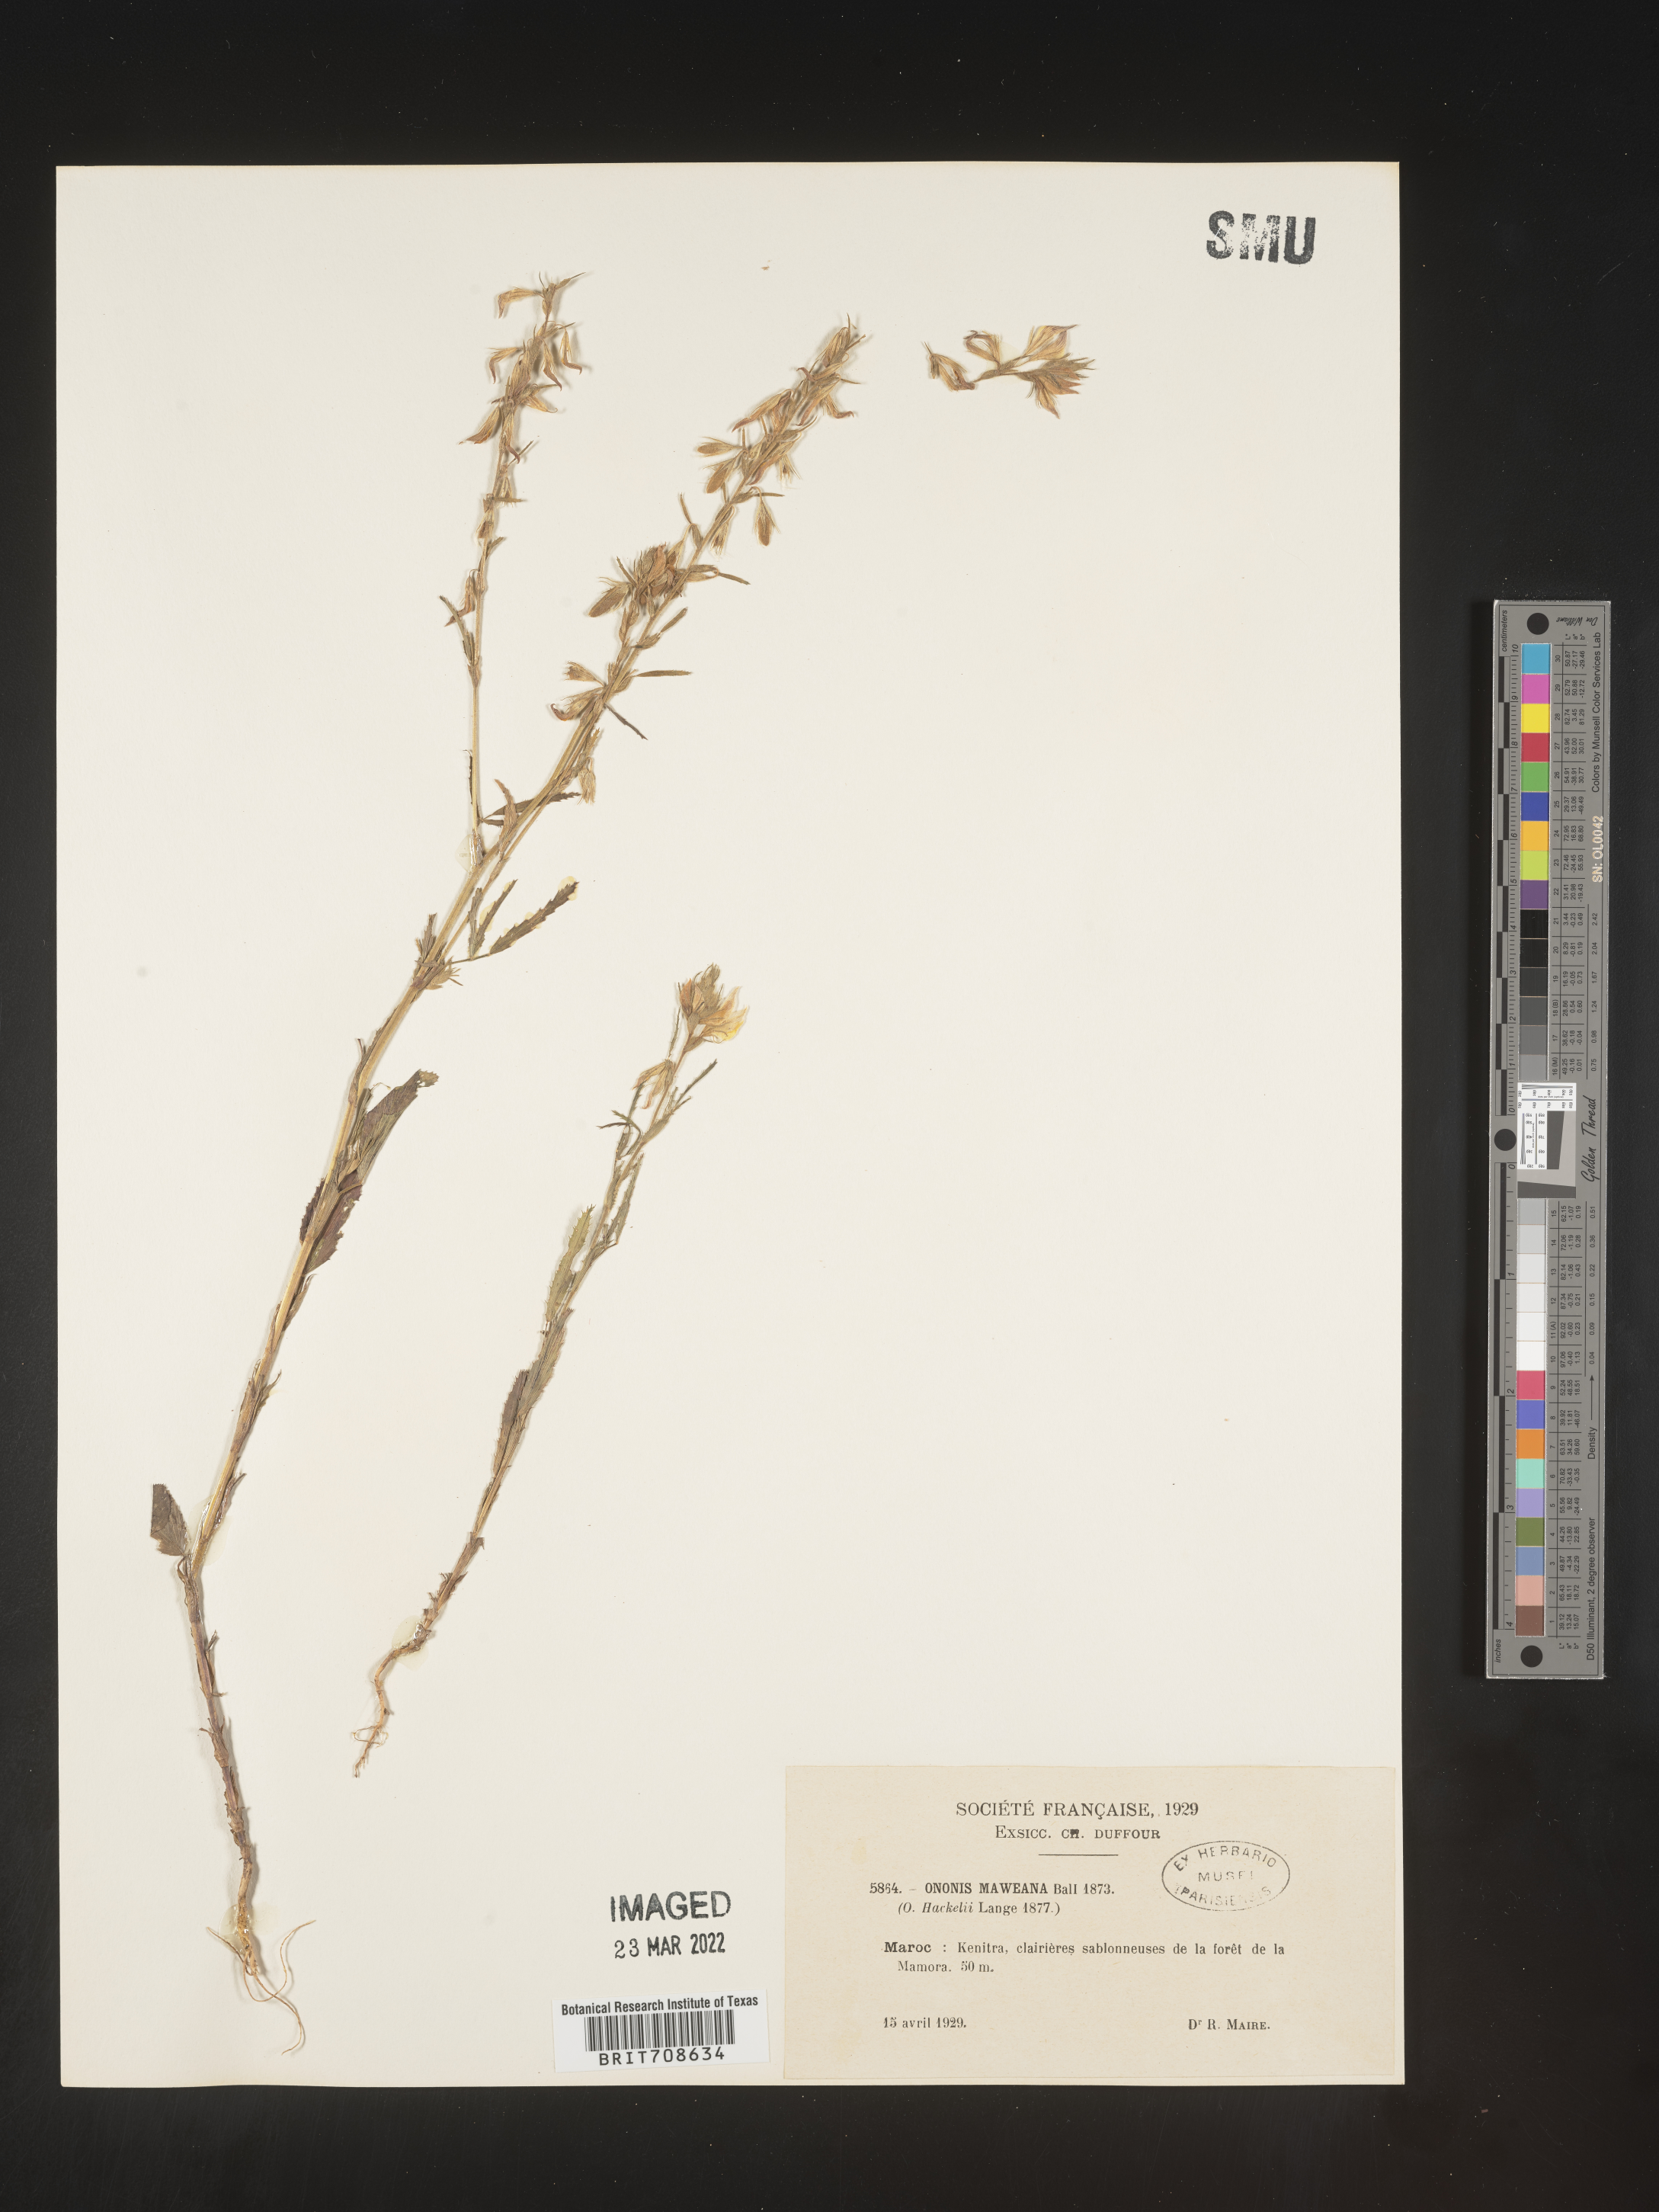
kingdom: Plantae
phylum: Tracheophyta
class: Magnoliopsida
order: Fabales
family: Fabaceae
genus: Ononis
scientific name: Ononis
